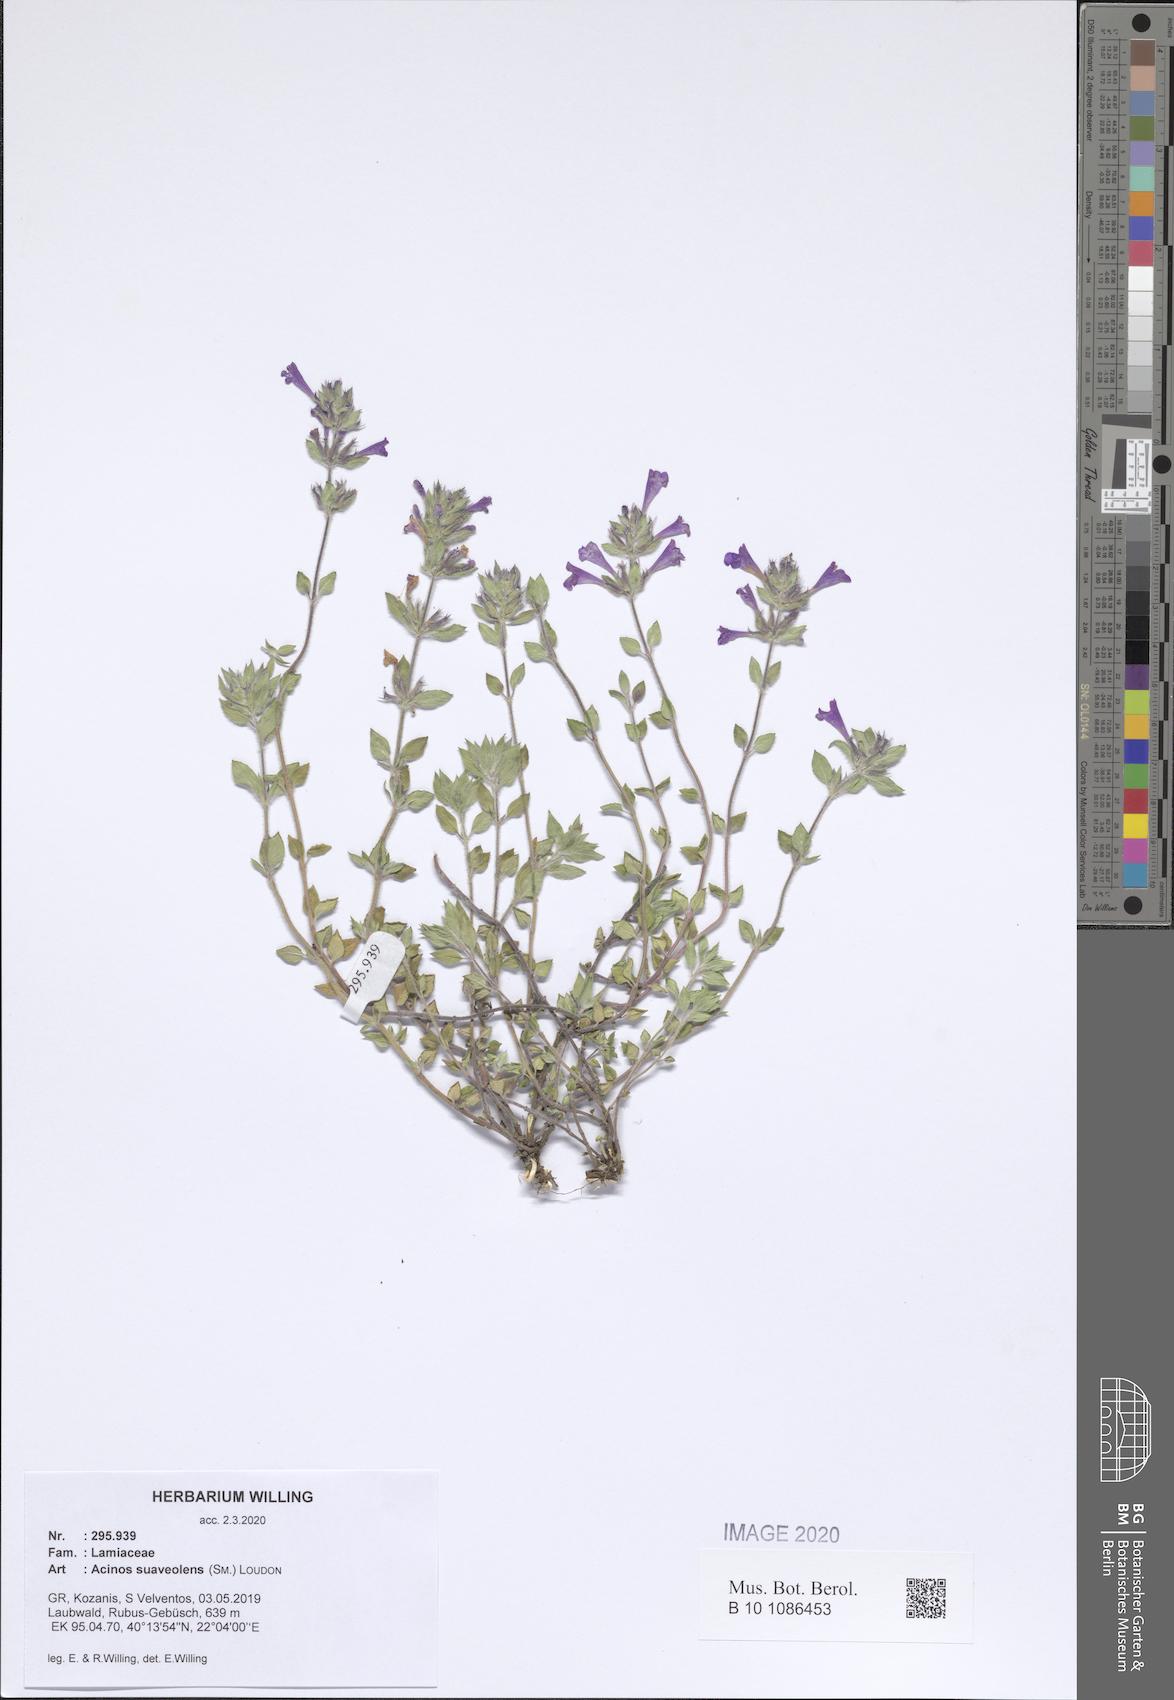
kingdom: Plantae
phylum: Tracheophyta
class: Magnoliopsida
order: Lamiales
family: Lamiaceae
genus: Clinopodium
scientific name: Clinopodium suaveolens
